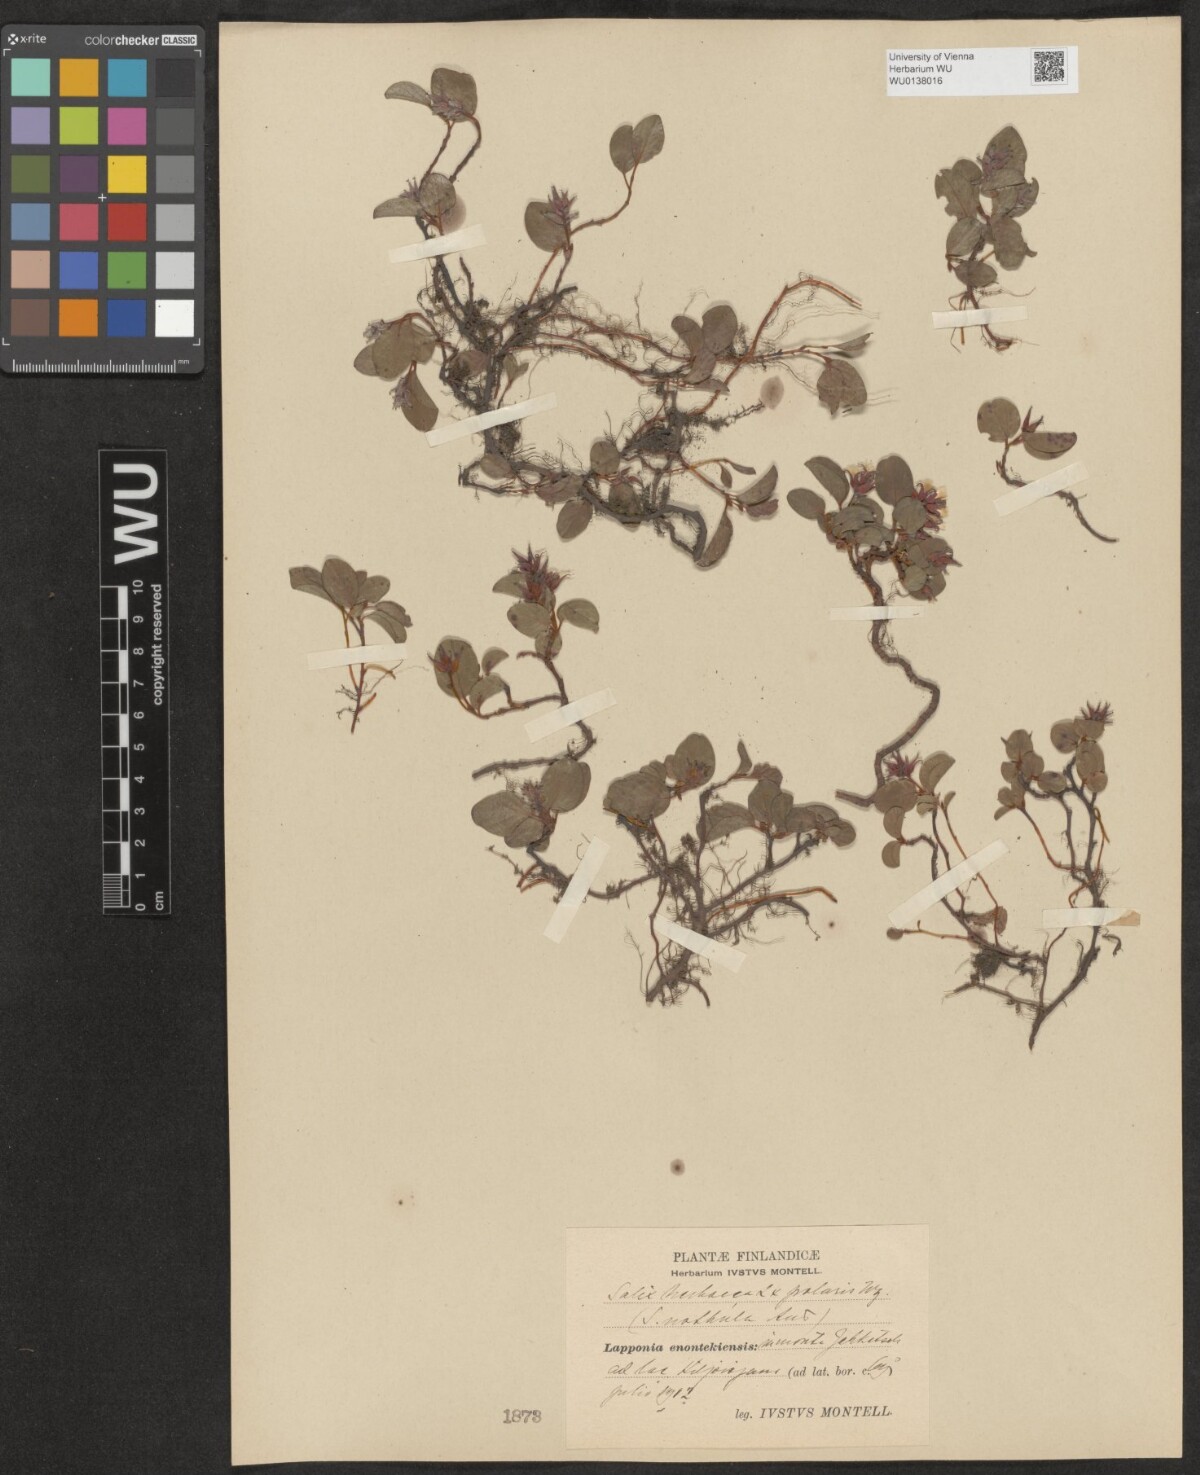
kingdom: Plantae
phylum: Tracheophyta
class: Magnoliopsida
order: Malpighiales
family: Salicaceae
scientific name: Salicaceae
